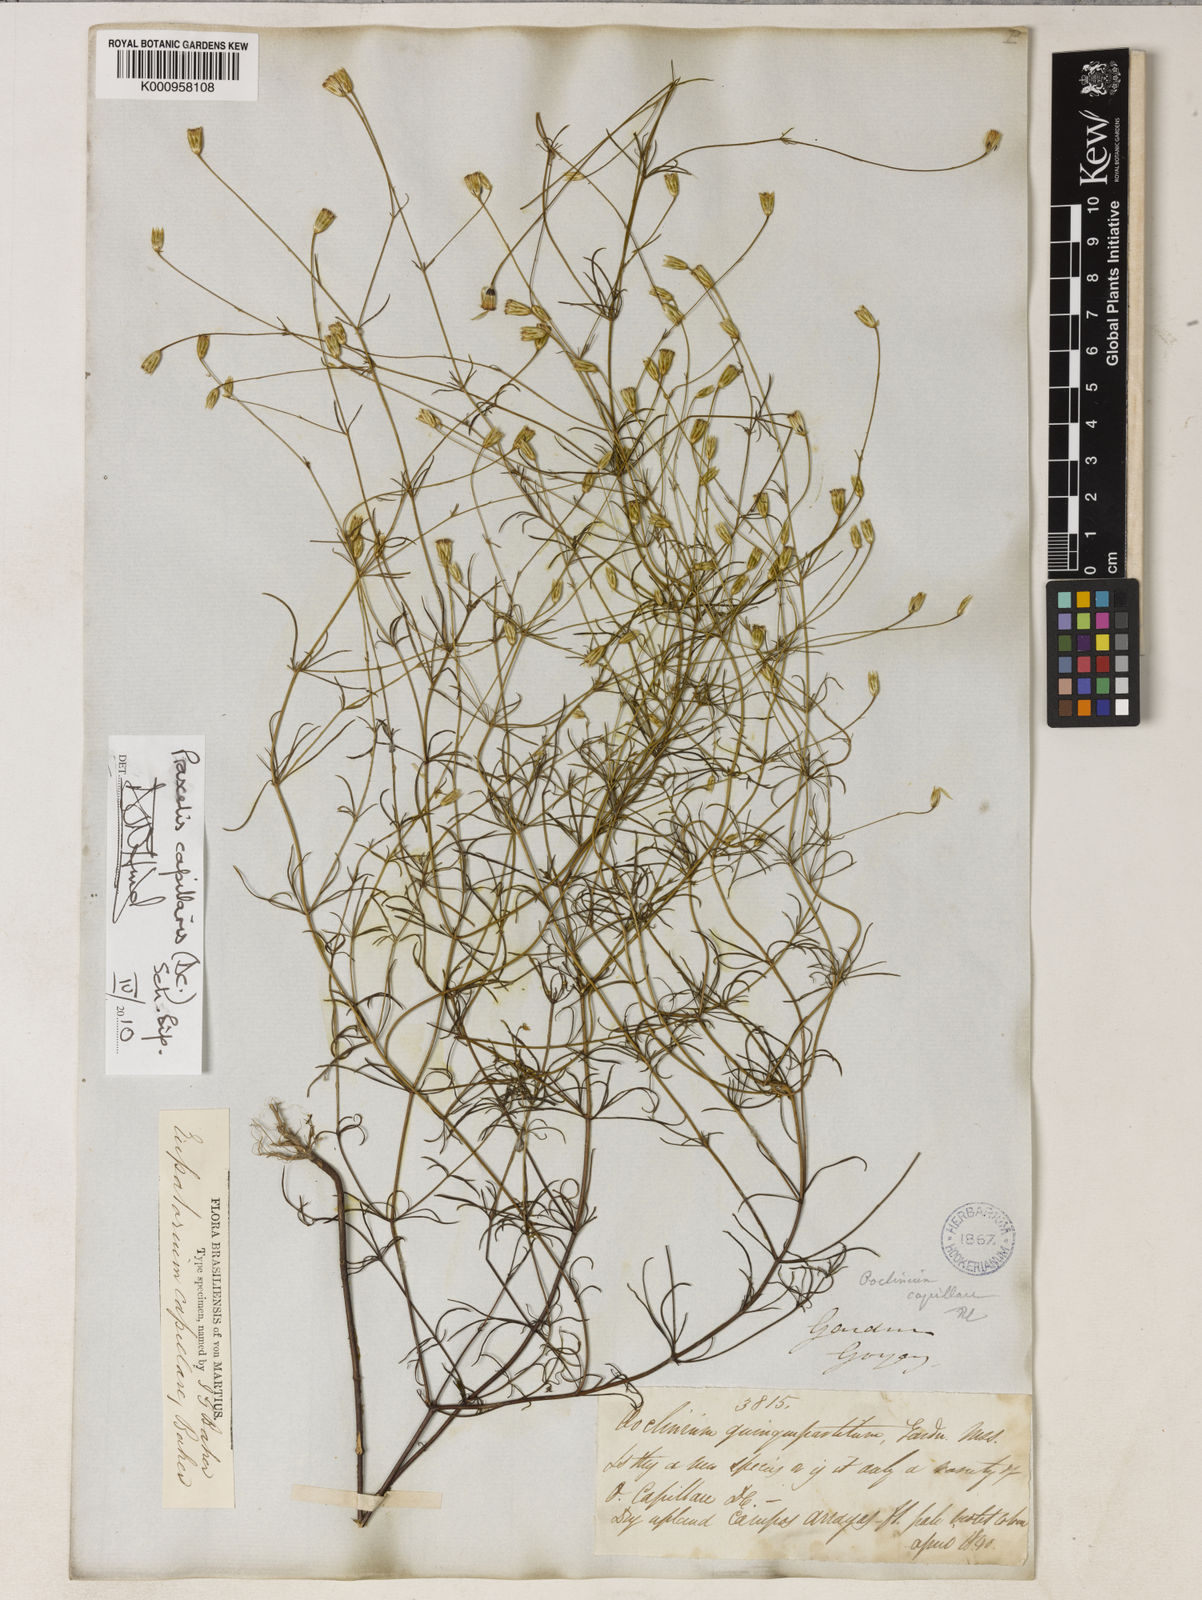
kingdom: Plantae
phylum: Tracheophyta
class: Magnoliopsida
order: Asterales
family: Asteraceae
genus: Praxelis
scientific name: Praxelis capillaris
